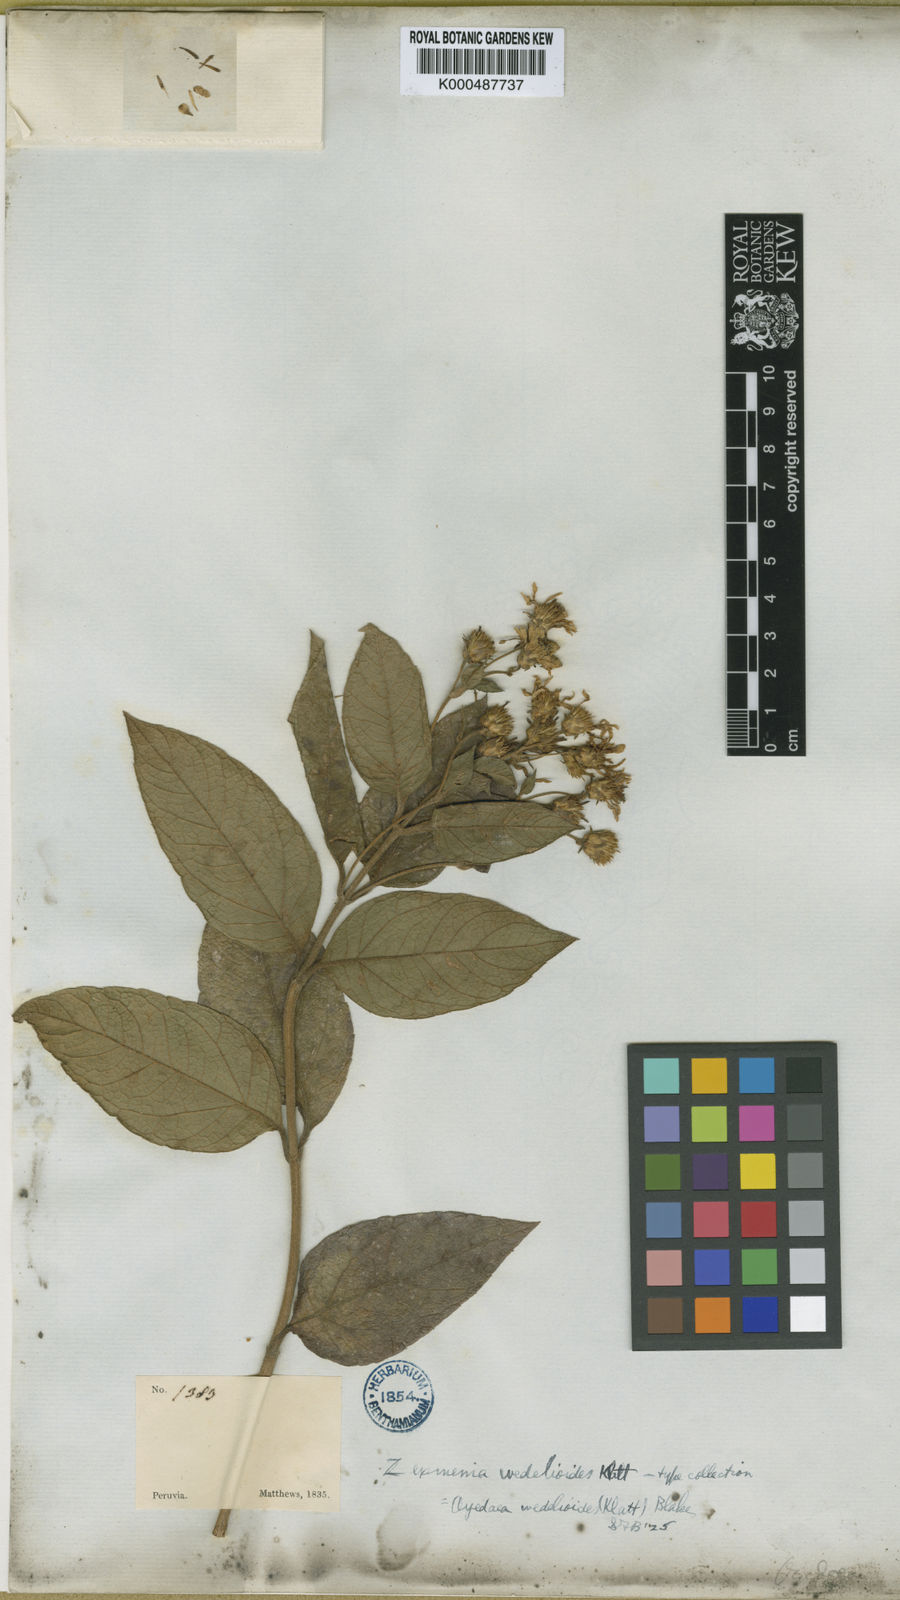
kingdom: Plantae
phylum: Tracheophyta
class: Magnoliopsida
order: Asterales
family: Asteraceae
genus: Oyedaea
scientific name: Oyedaea wedelioides
